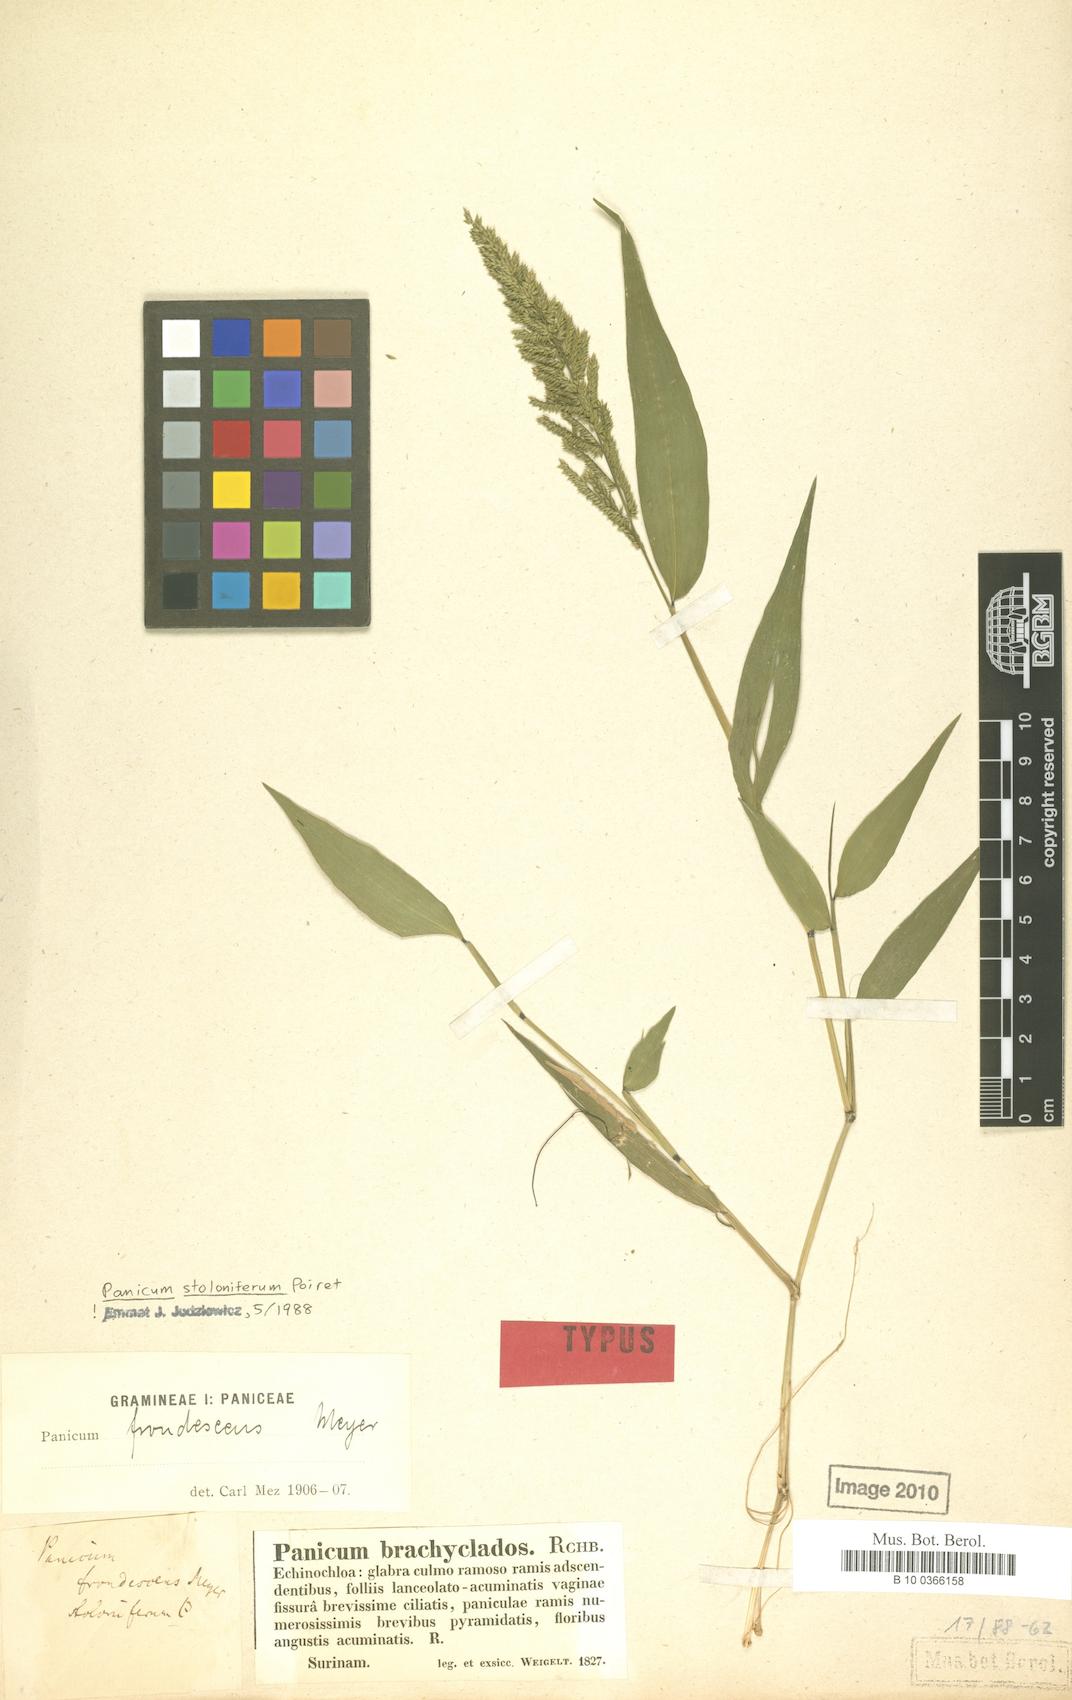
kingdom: Plantae
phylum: Tracheophyta
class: Liliopsida
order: Poales
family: Poaceae
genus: Ocellochloa
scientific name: Ocellochloa stolonifera
